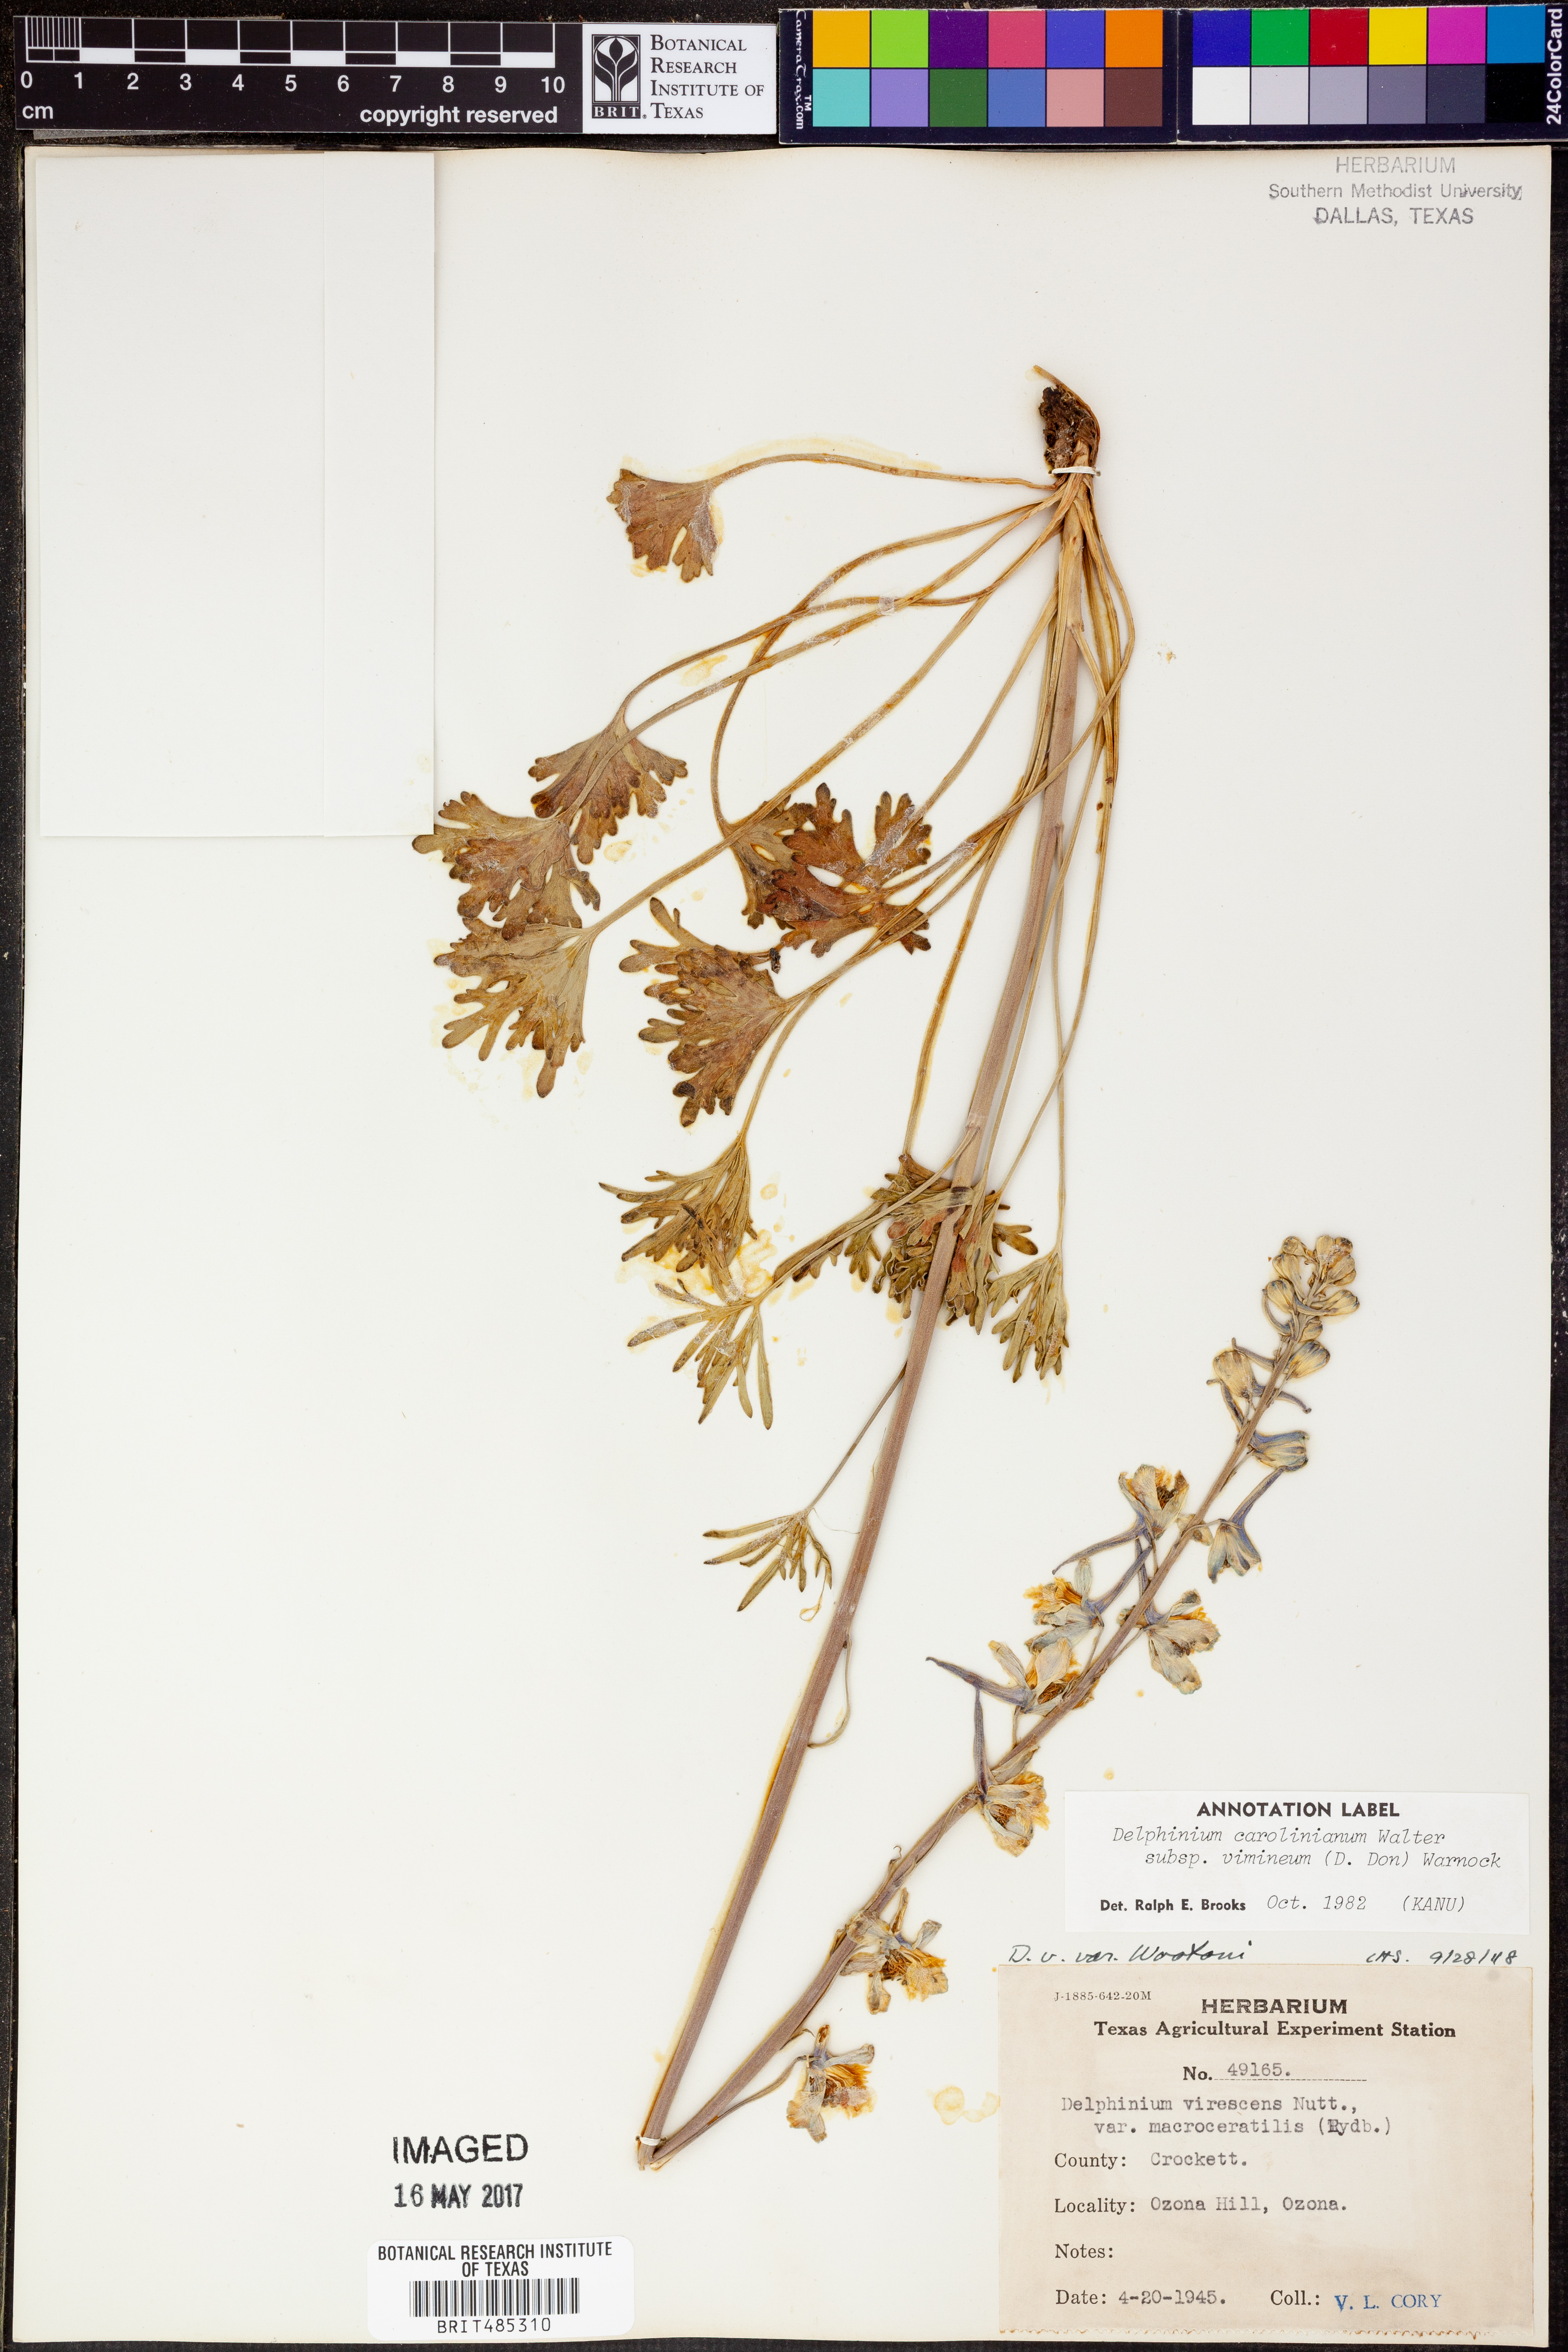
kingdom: Plantae
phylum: Tracheophyta
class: Magnoliopsida
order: Ranunculales
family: Ranunculaceae
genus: Delphinium
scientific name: Delphinium carolinianum
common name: Carolina larkspur
